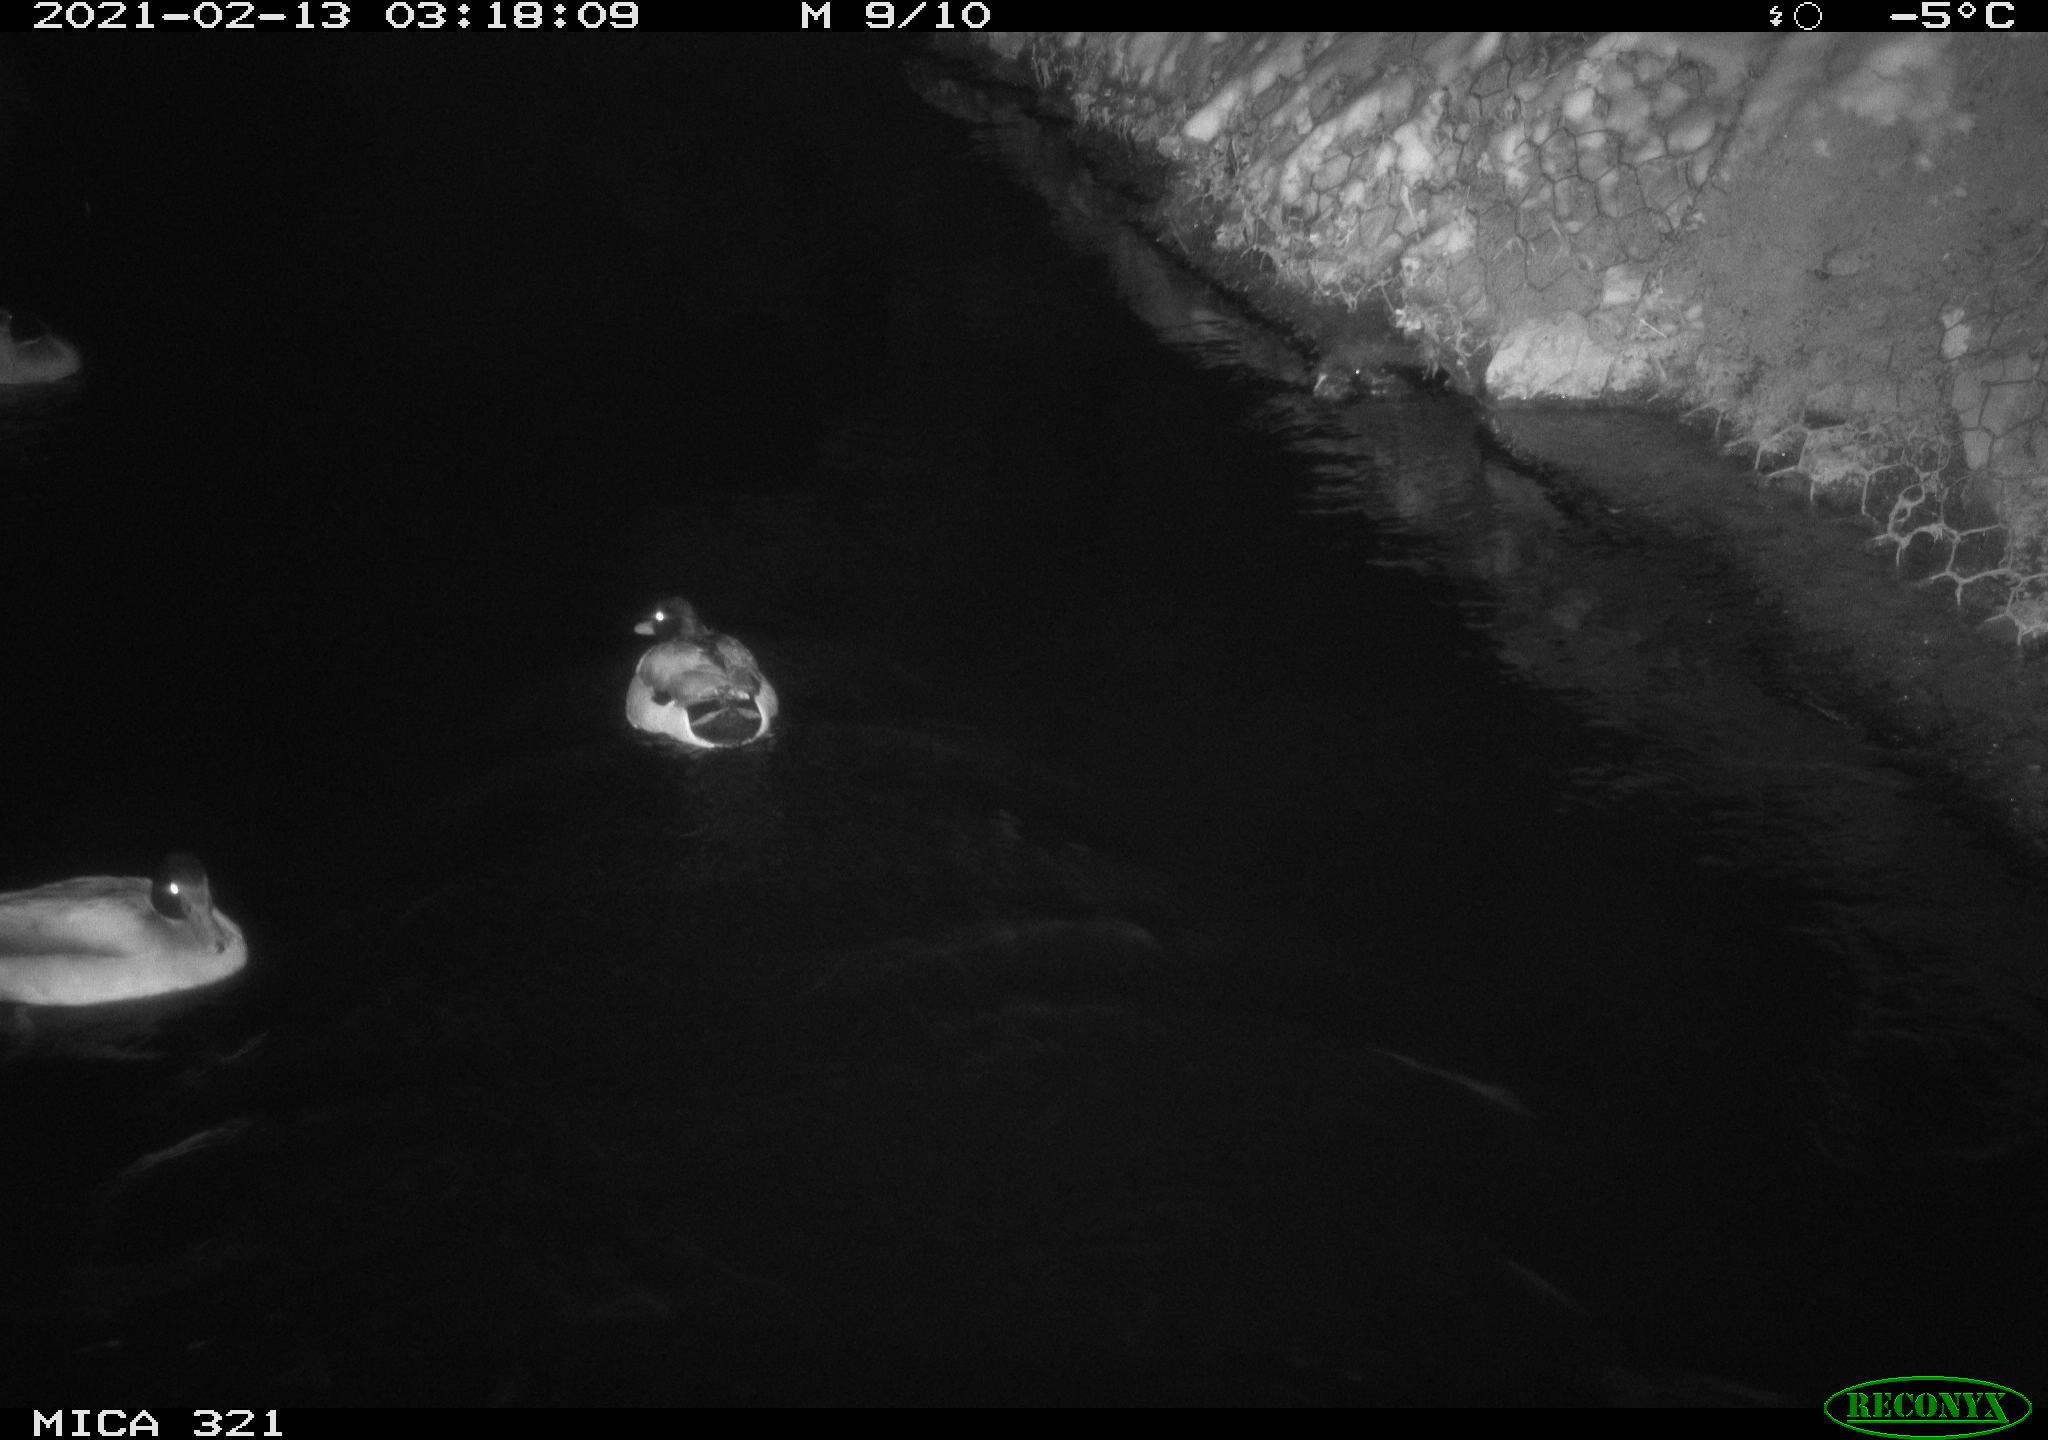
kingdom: Animalia
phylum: Chordata
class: Aves
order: Anseriformes
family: Anatidae
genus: Anas
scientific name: Anas platyrhynchos
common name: Mallard
